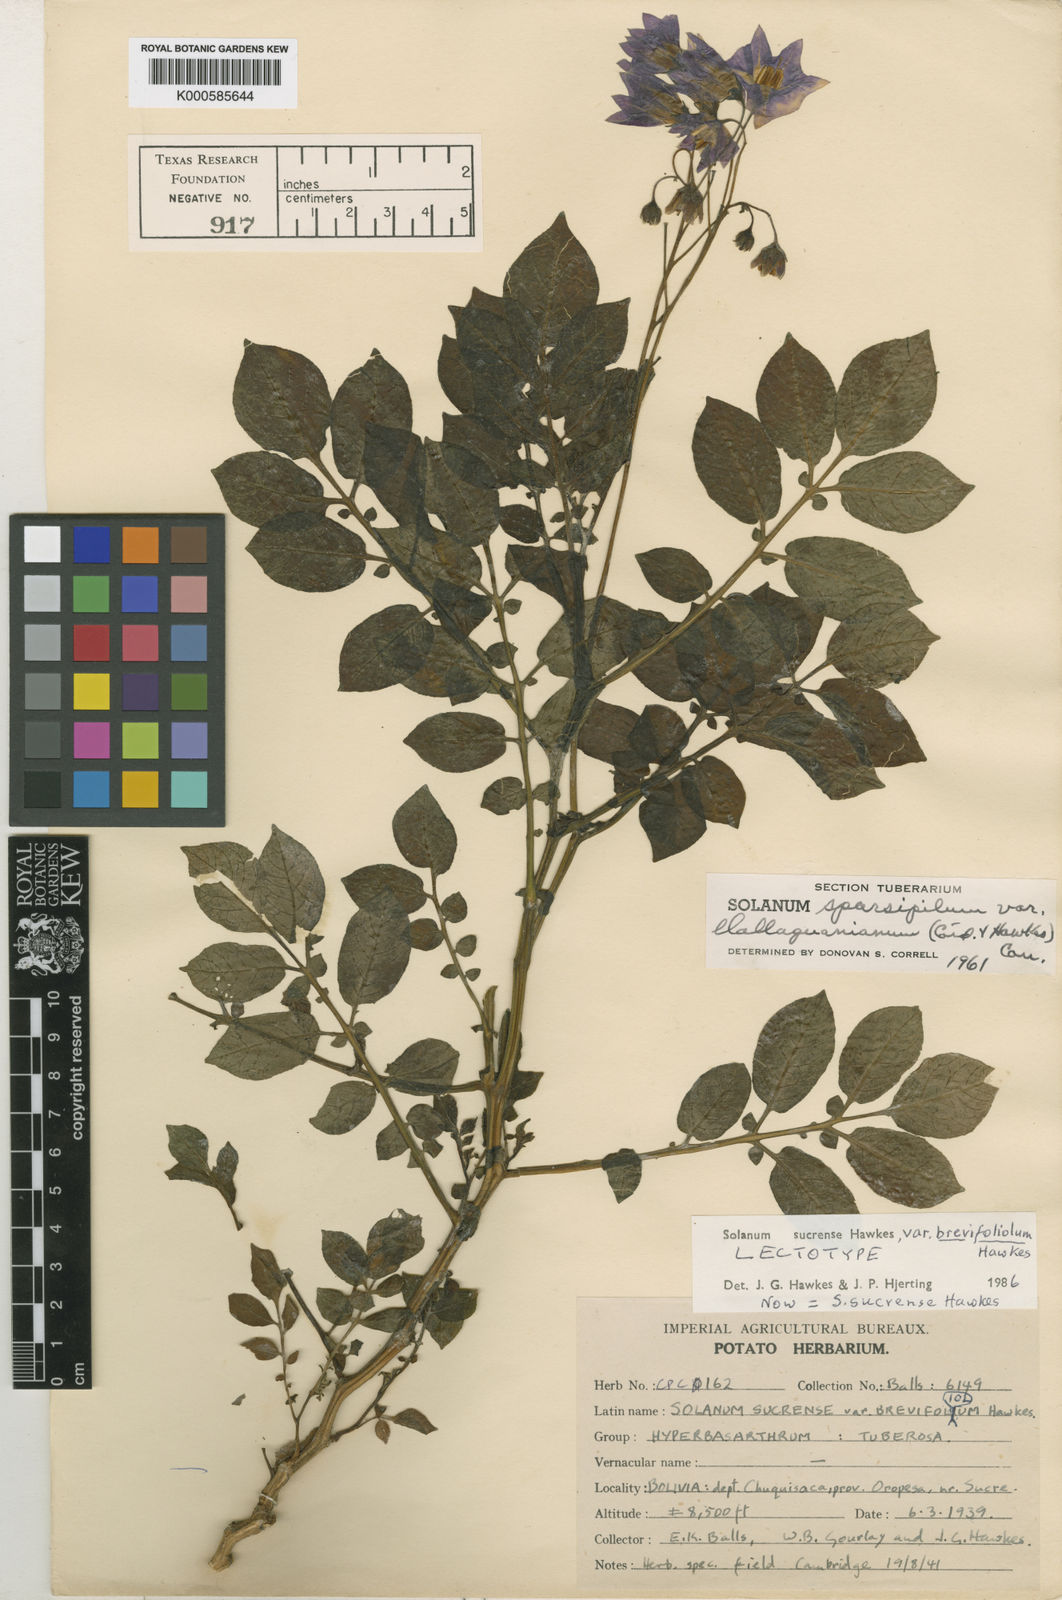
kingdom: Plantae
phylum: Tracheophyta
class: Magnoliopsida
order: Solanales
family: Solanaceae
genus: Solanum
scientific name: Solanum brevicaule
